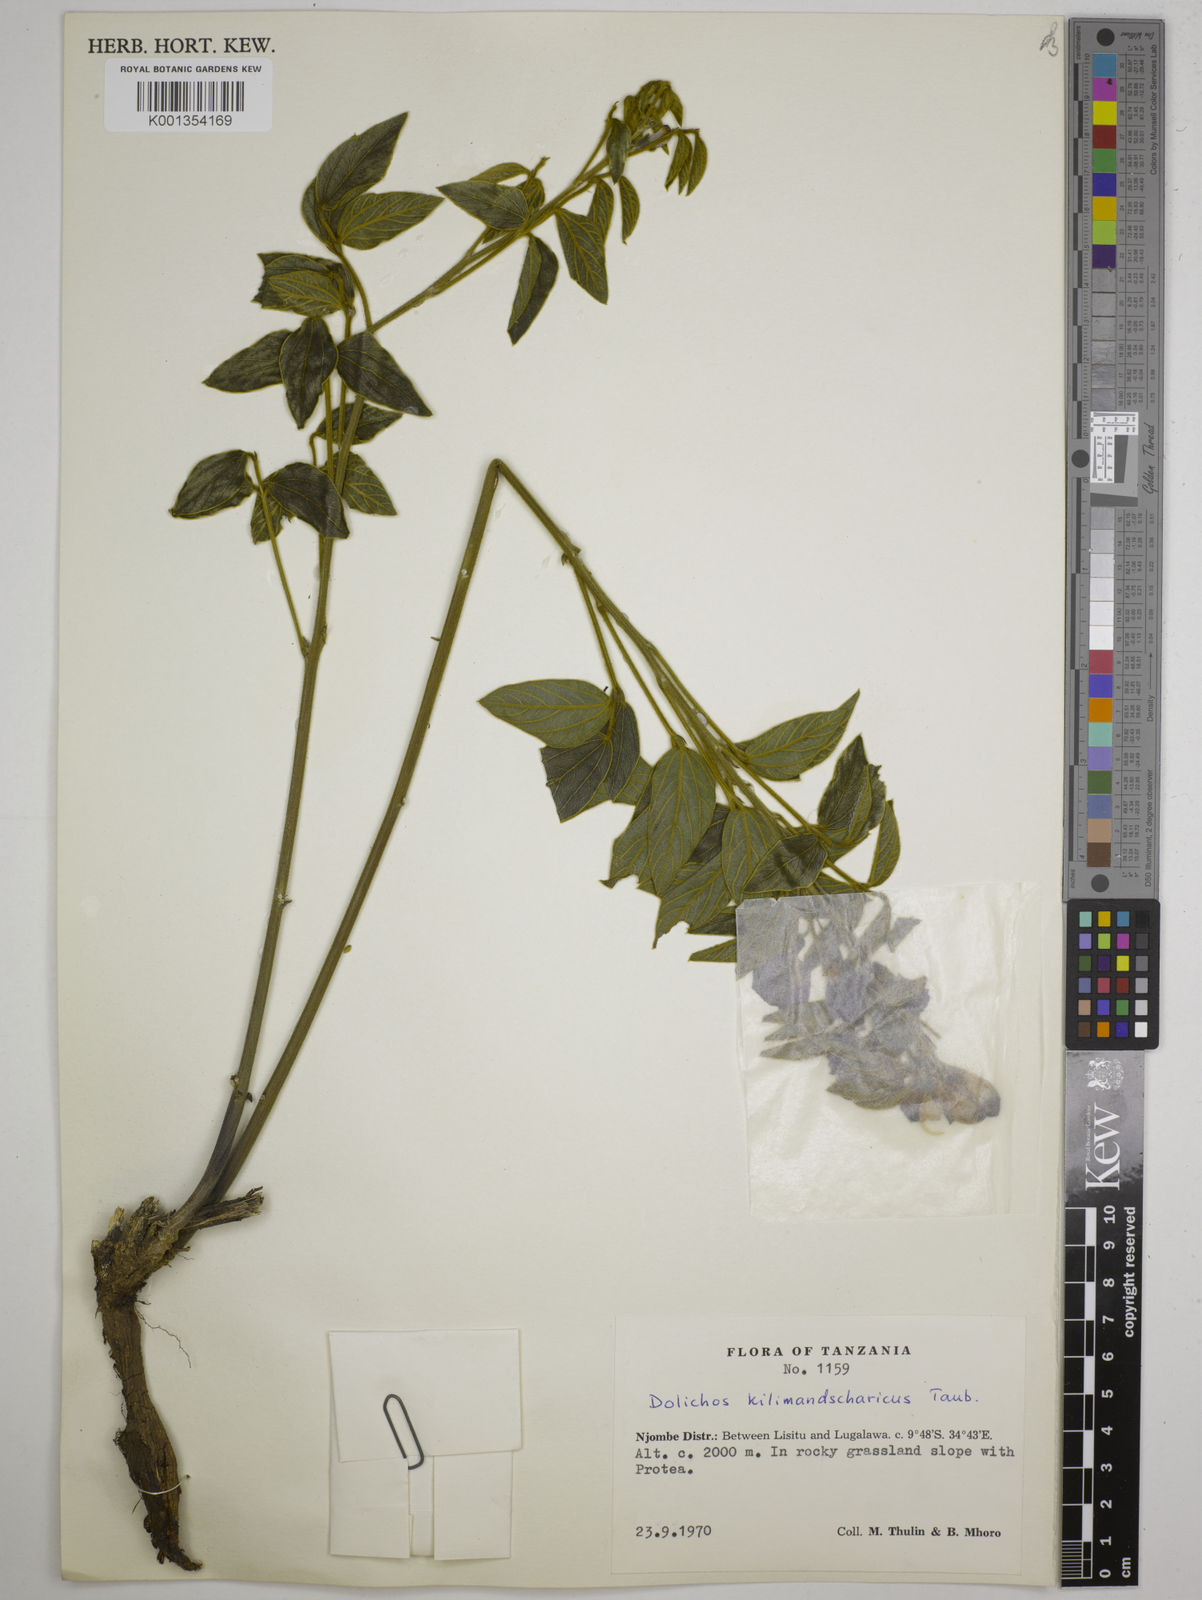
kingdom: Plantae
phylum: Tracheophyta
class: Magnoliopsida
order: Fabales
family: Fabaceae
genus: Dolichos
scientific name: Dolichos kilimandscharicus
